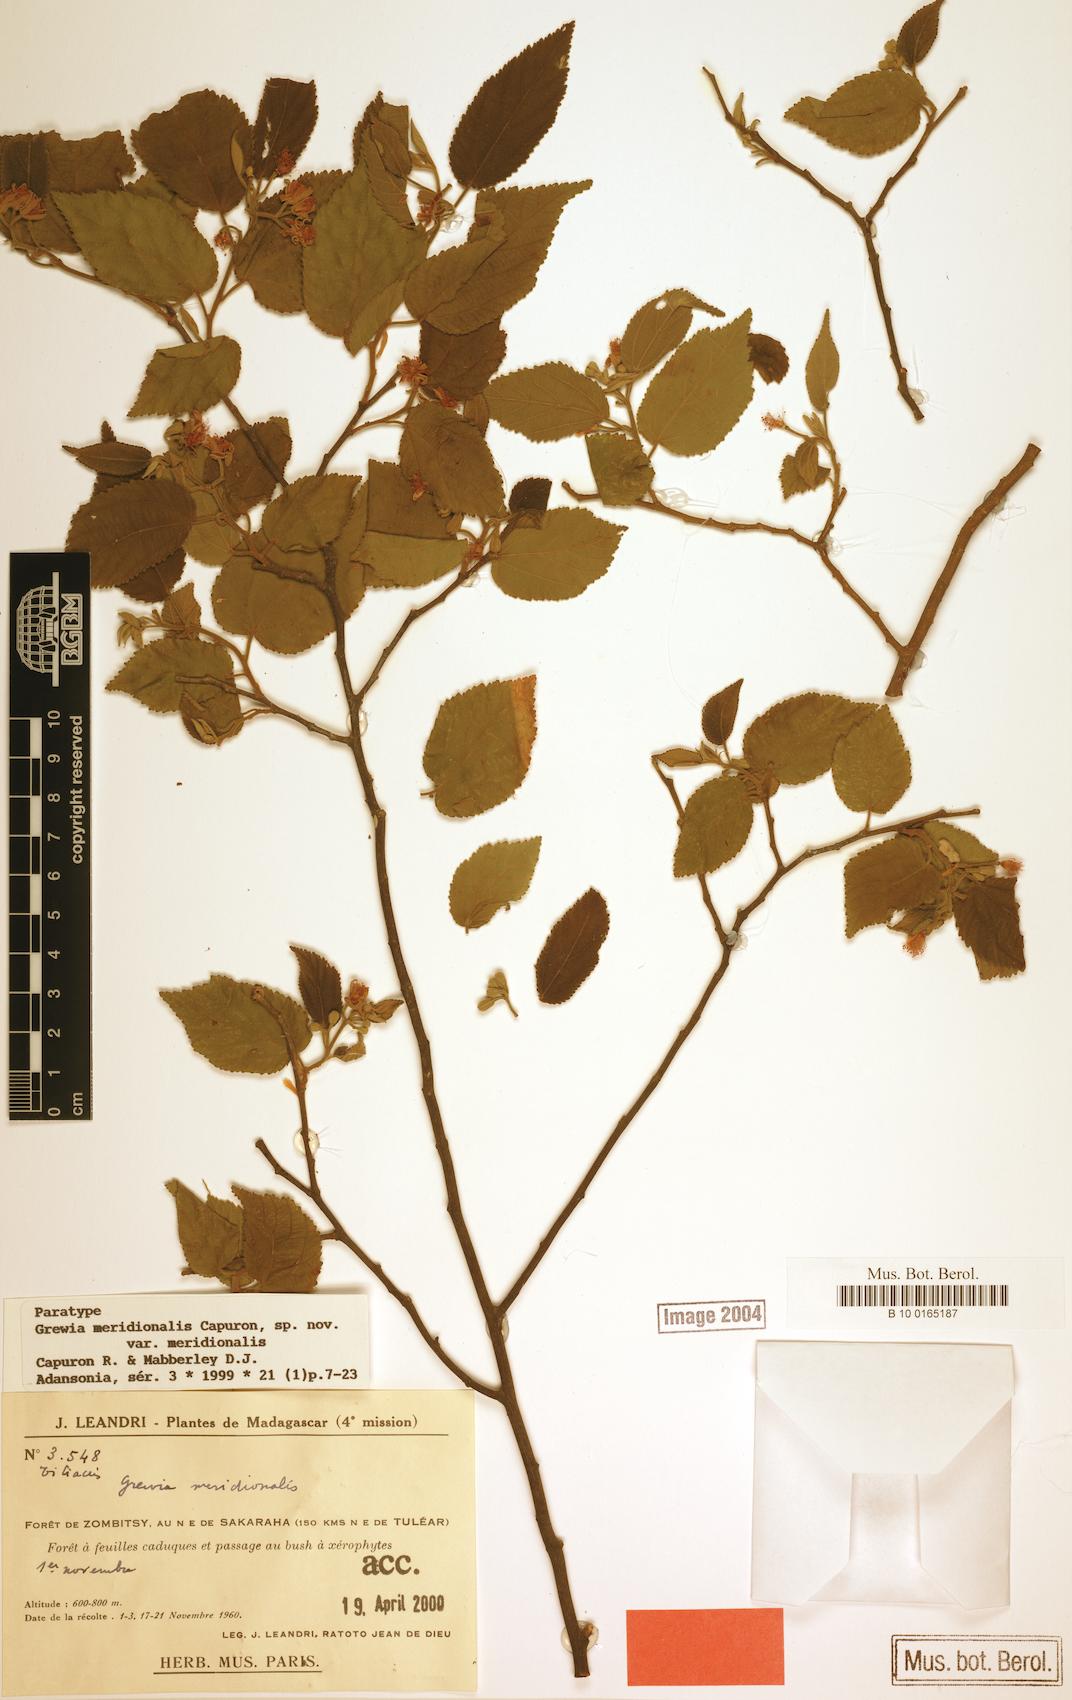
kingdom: Plantae
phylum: Tracheophyta
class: Magnoliopsida
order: Malvales
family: Malvaceae
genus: Grewia
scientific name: Grewia meridionalis
